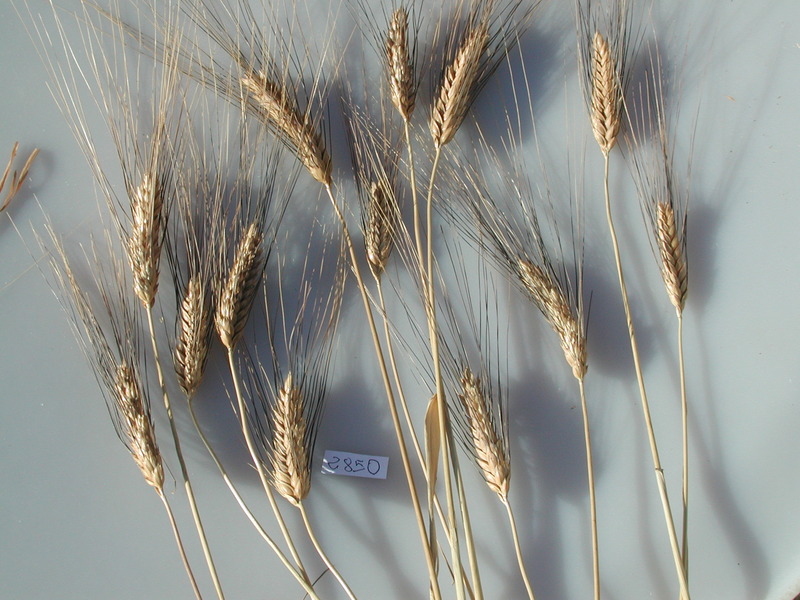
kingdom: Plantae
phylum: Tracheophyta
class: Liliopsida
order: Poales
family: Poaceae
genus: Triticum
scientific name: Triticum turgidum
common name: Wheat
